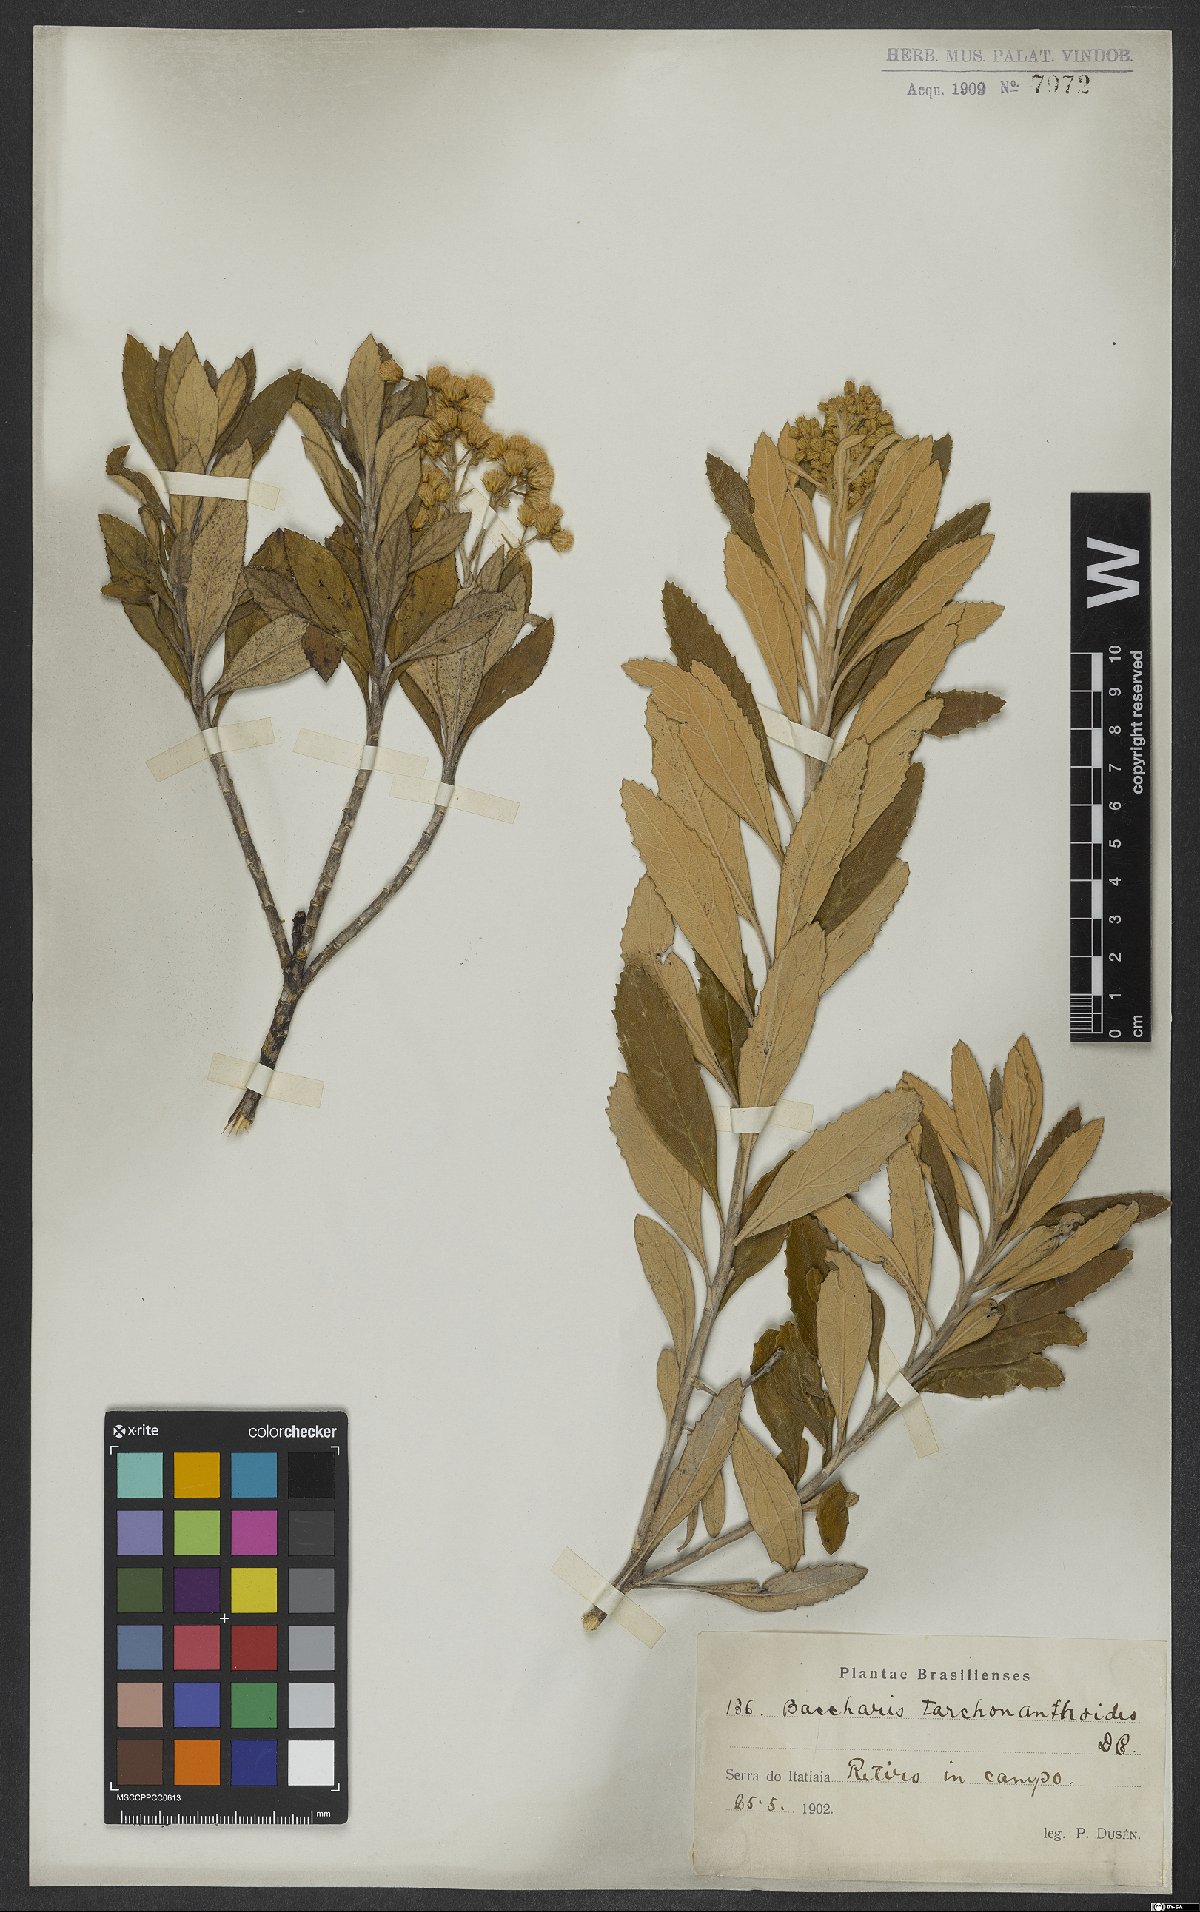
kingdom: Plantae
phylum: Tracheophyta
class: Magnoliopsida
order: Asterales
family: Asteraceae
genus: Baccharis
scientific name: Baccharis tarchonanthoides
